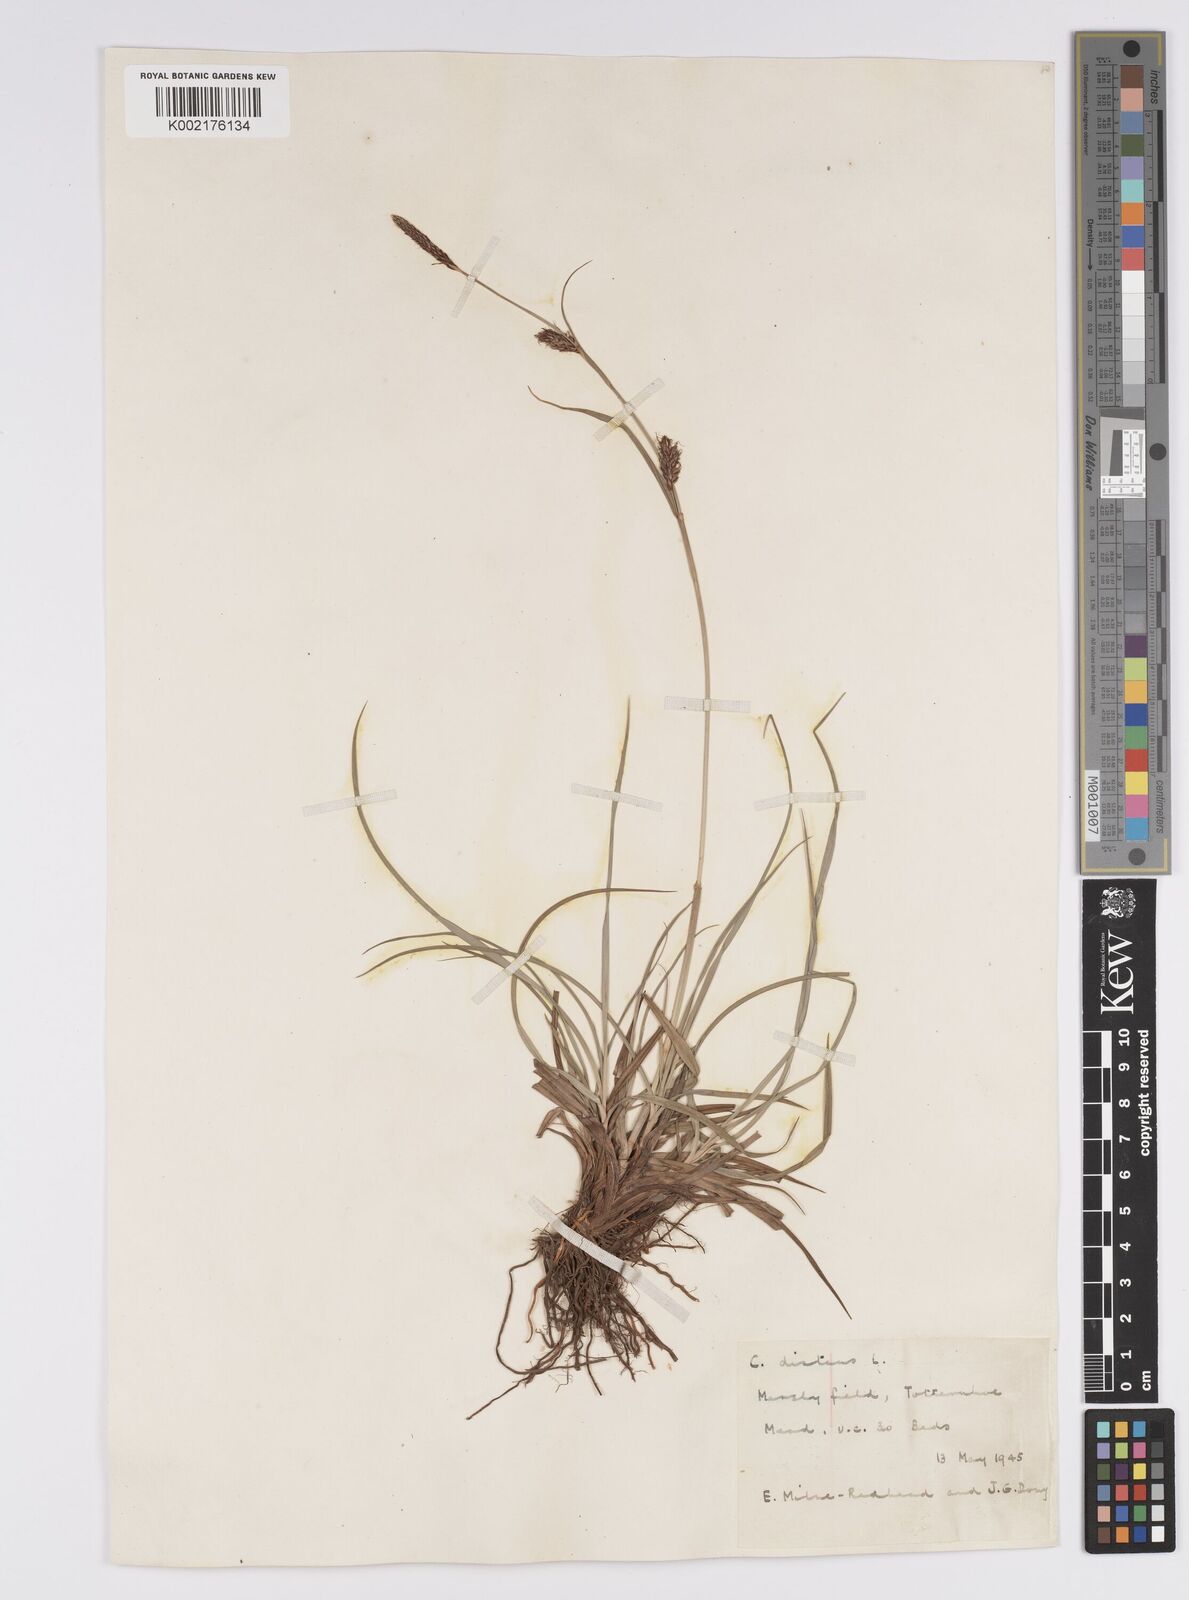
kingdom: Plantae
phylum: Tracheophyta
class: Liliopsida
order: Poales
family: Cyperaceae
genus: Carex
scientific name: Carex distans
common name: Distant sedge
